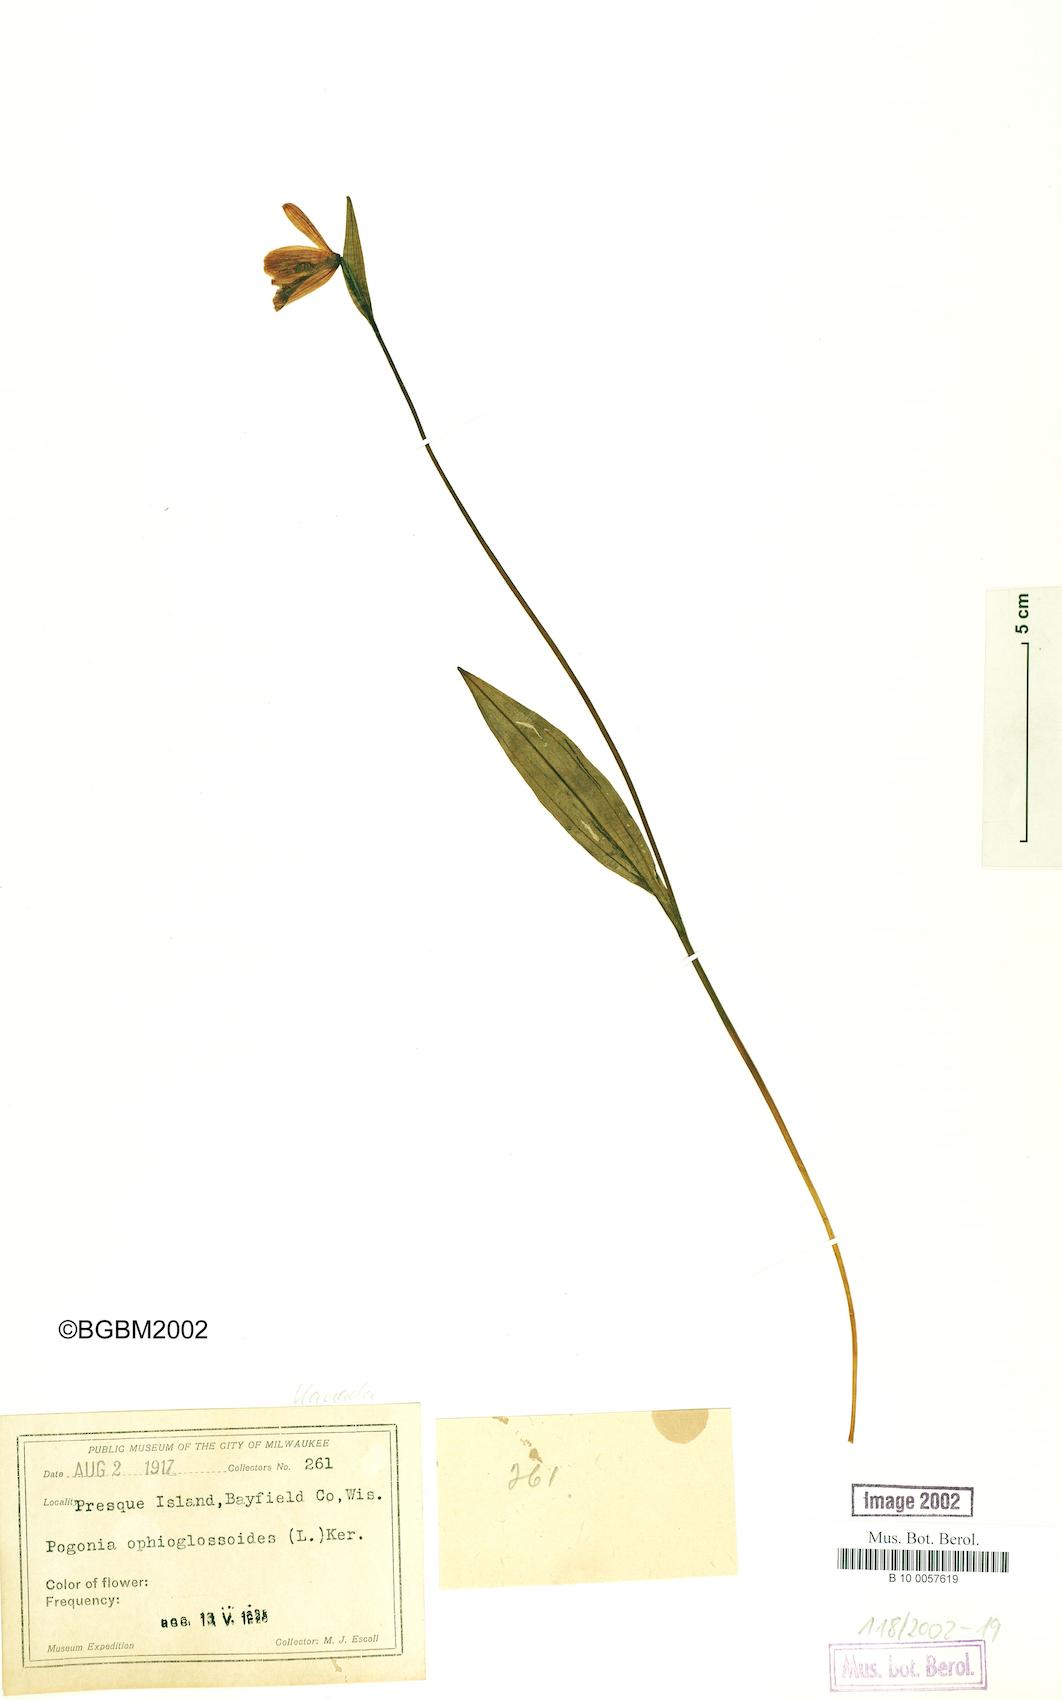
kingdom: Plantae
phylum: Tracheophyta
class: Liliopsida
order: Asparagales
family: Orchidaceae
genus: Pogonia
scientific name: Pogonia ophioglossoides
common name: Rose pogonia
